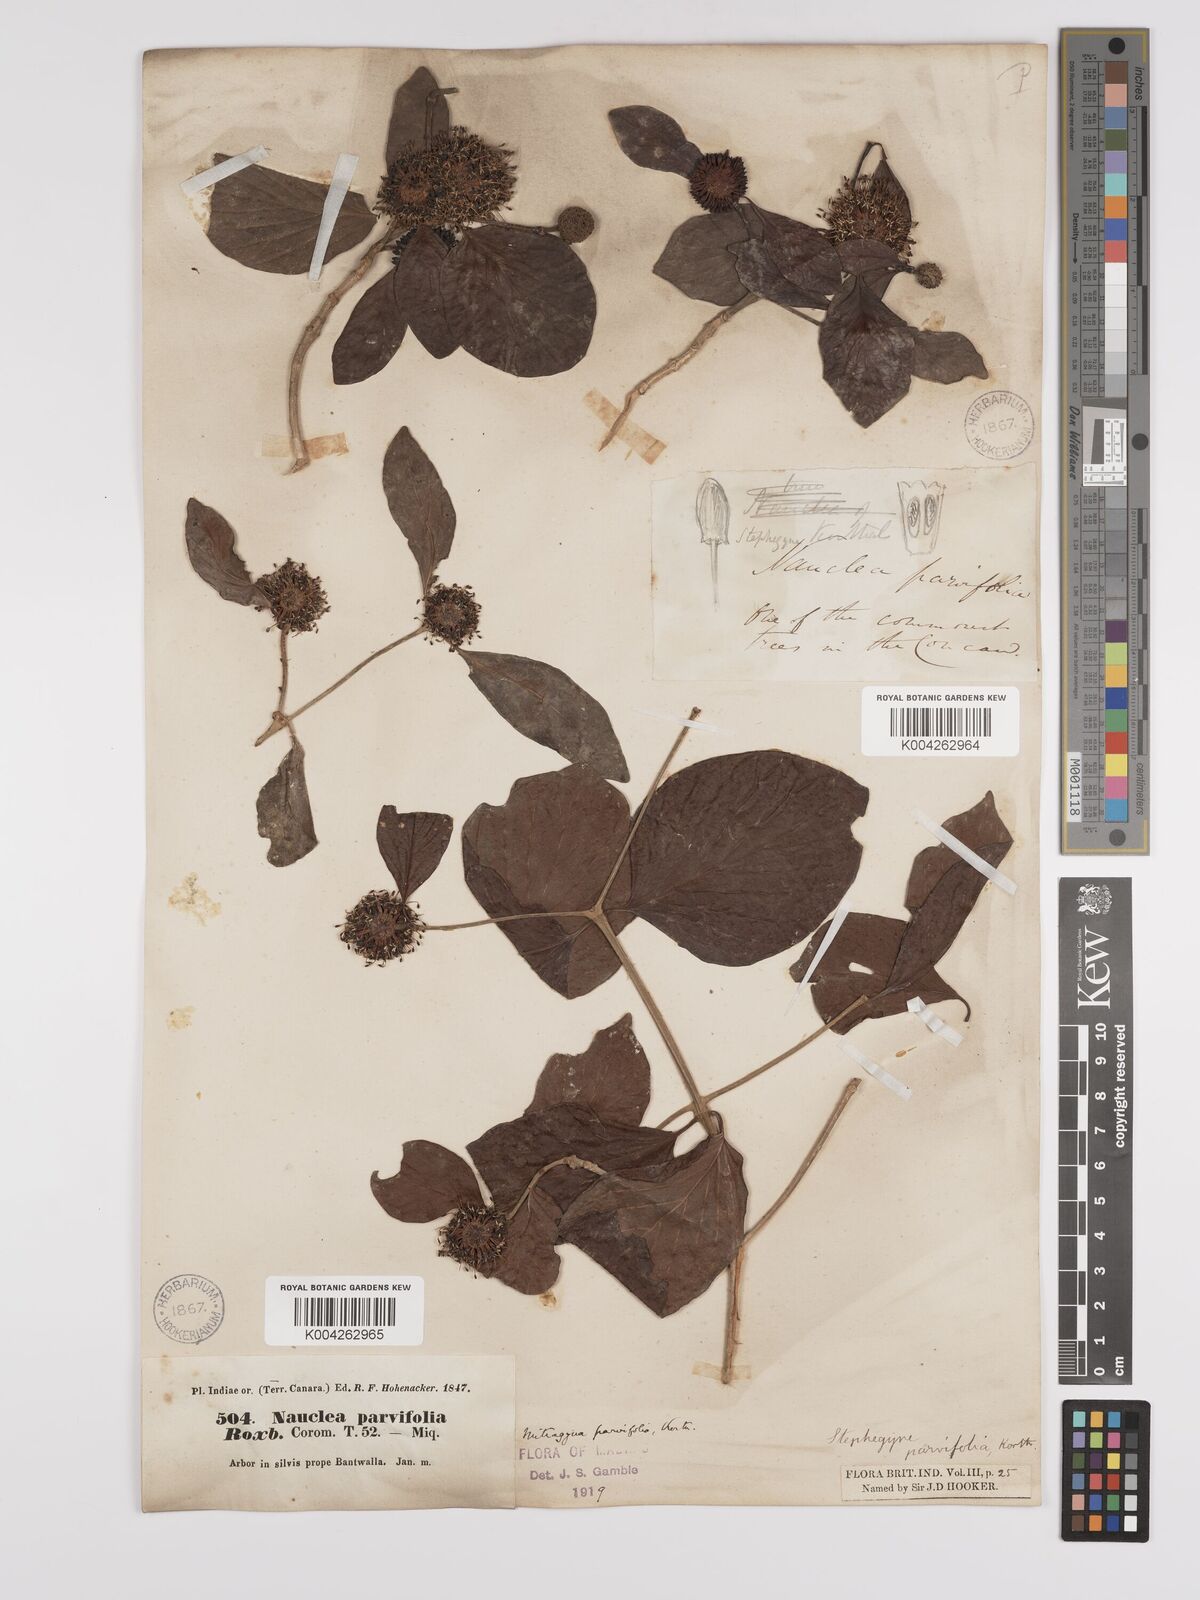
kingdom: Plantae
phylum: Tracheophyta
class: Magnoliopsida
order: Gentianales
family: Rubiaceae
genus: Mitragyna
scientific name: Mitragyna parvifolia
